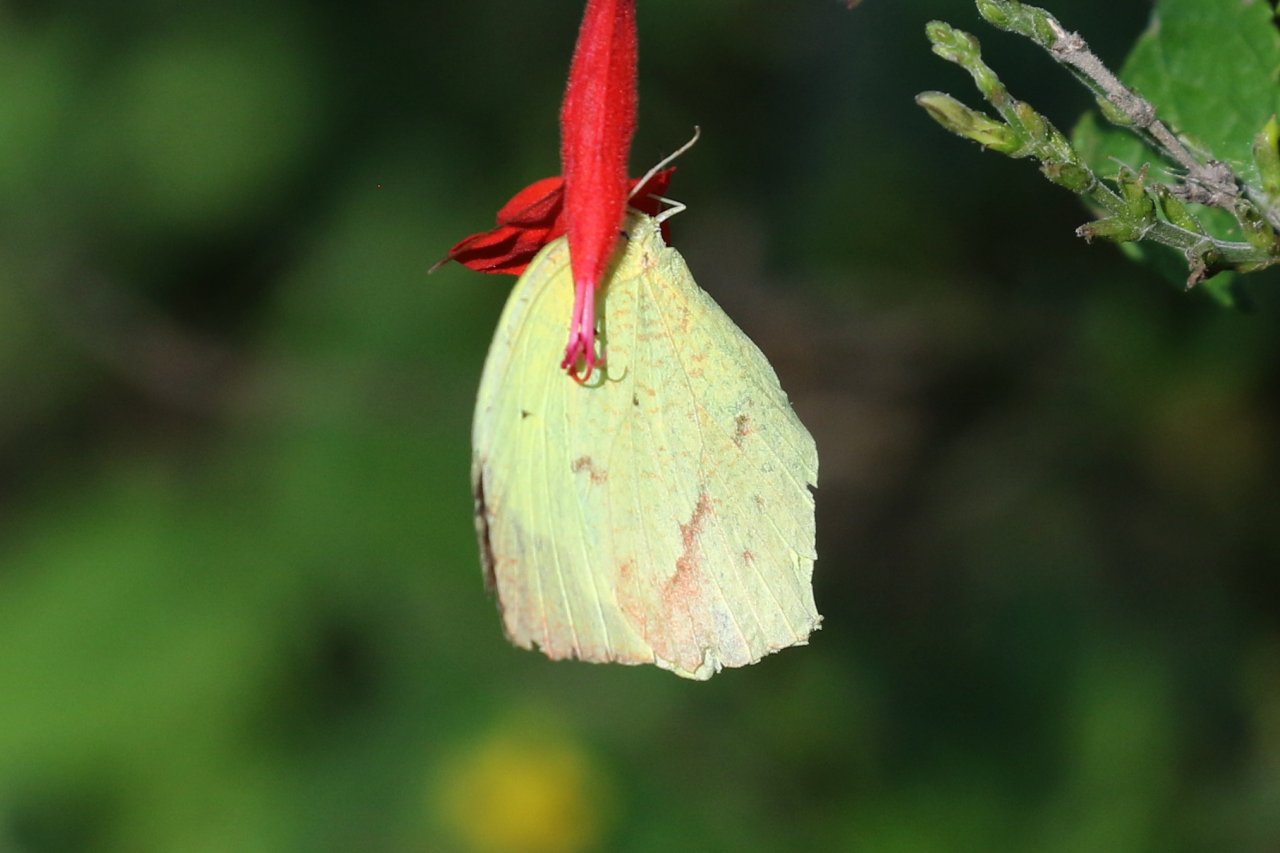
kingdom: Animalia
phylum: Arthropoda
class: Insecta
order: Lepidoptera
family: Pieridae
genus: Eurema
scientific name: Eurema boisduvaliana
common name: Boisduval's Yellow
